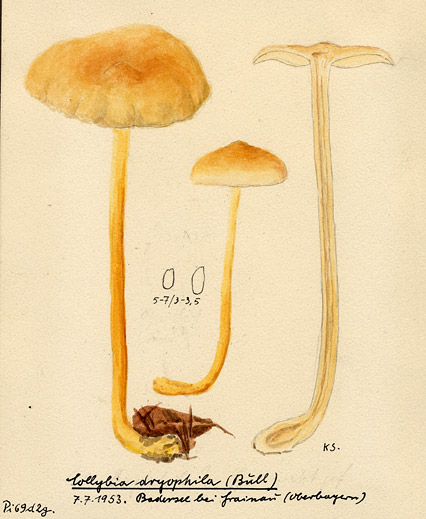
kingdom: Fungi
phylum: Basidiomycota
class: Agaricomycetes
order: Agaricales
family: Omphalotaceae
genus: Gymnopus
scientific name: Gymnopus dryophilus
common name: Penny top
